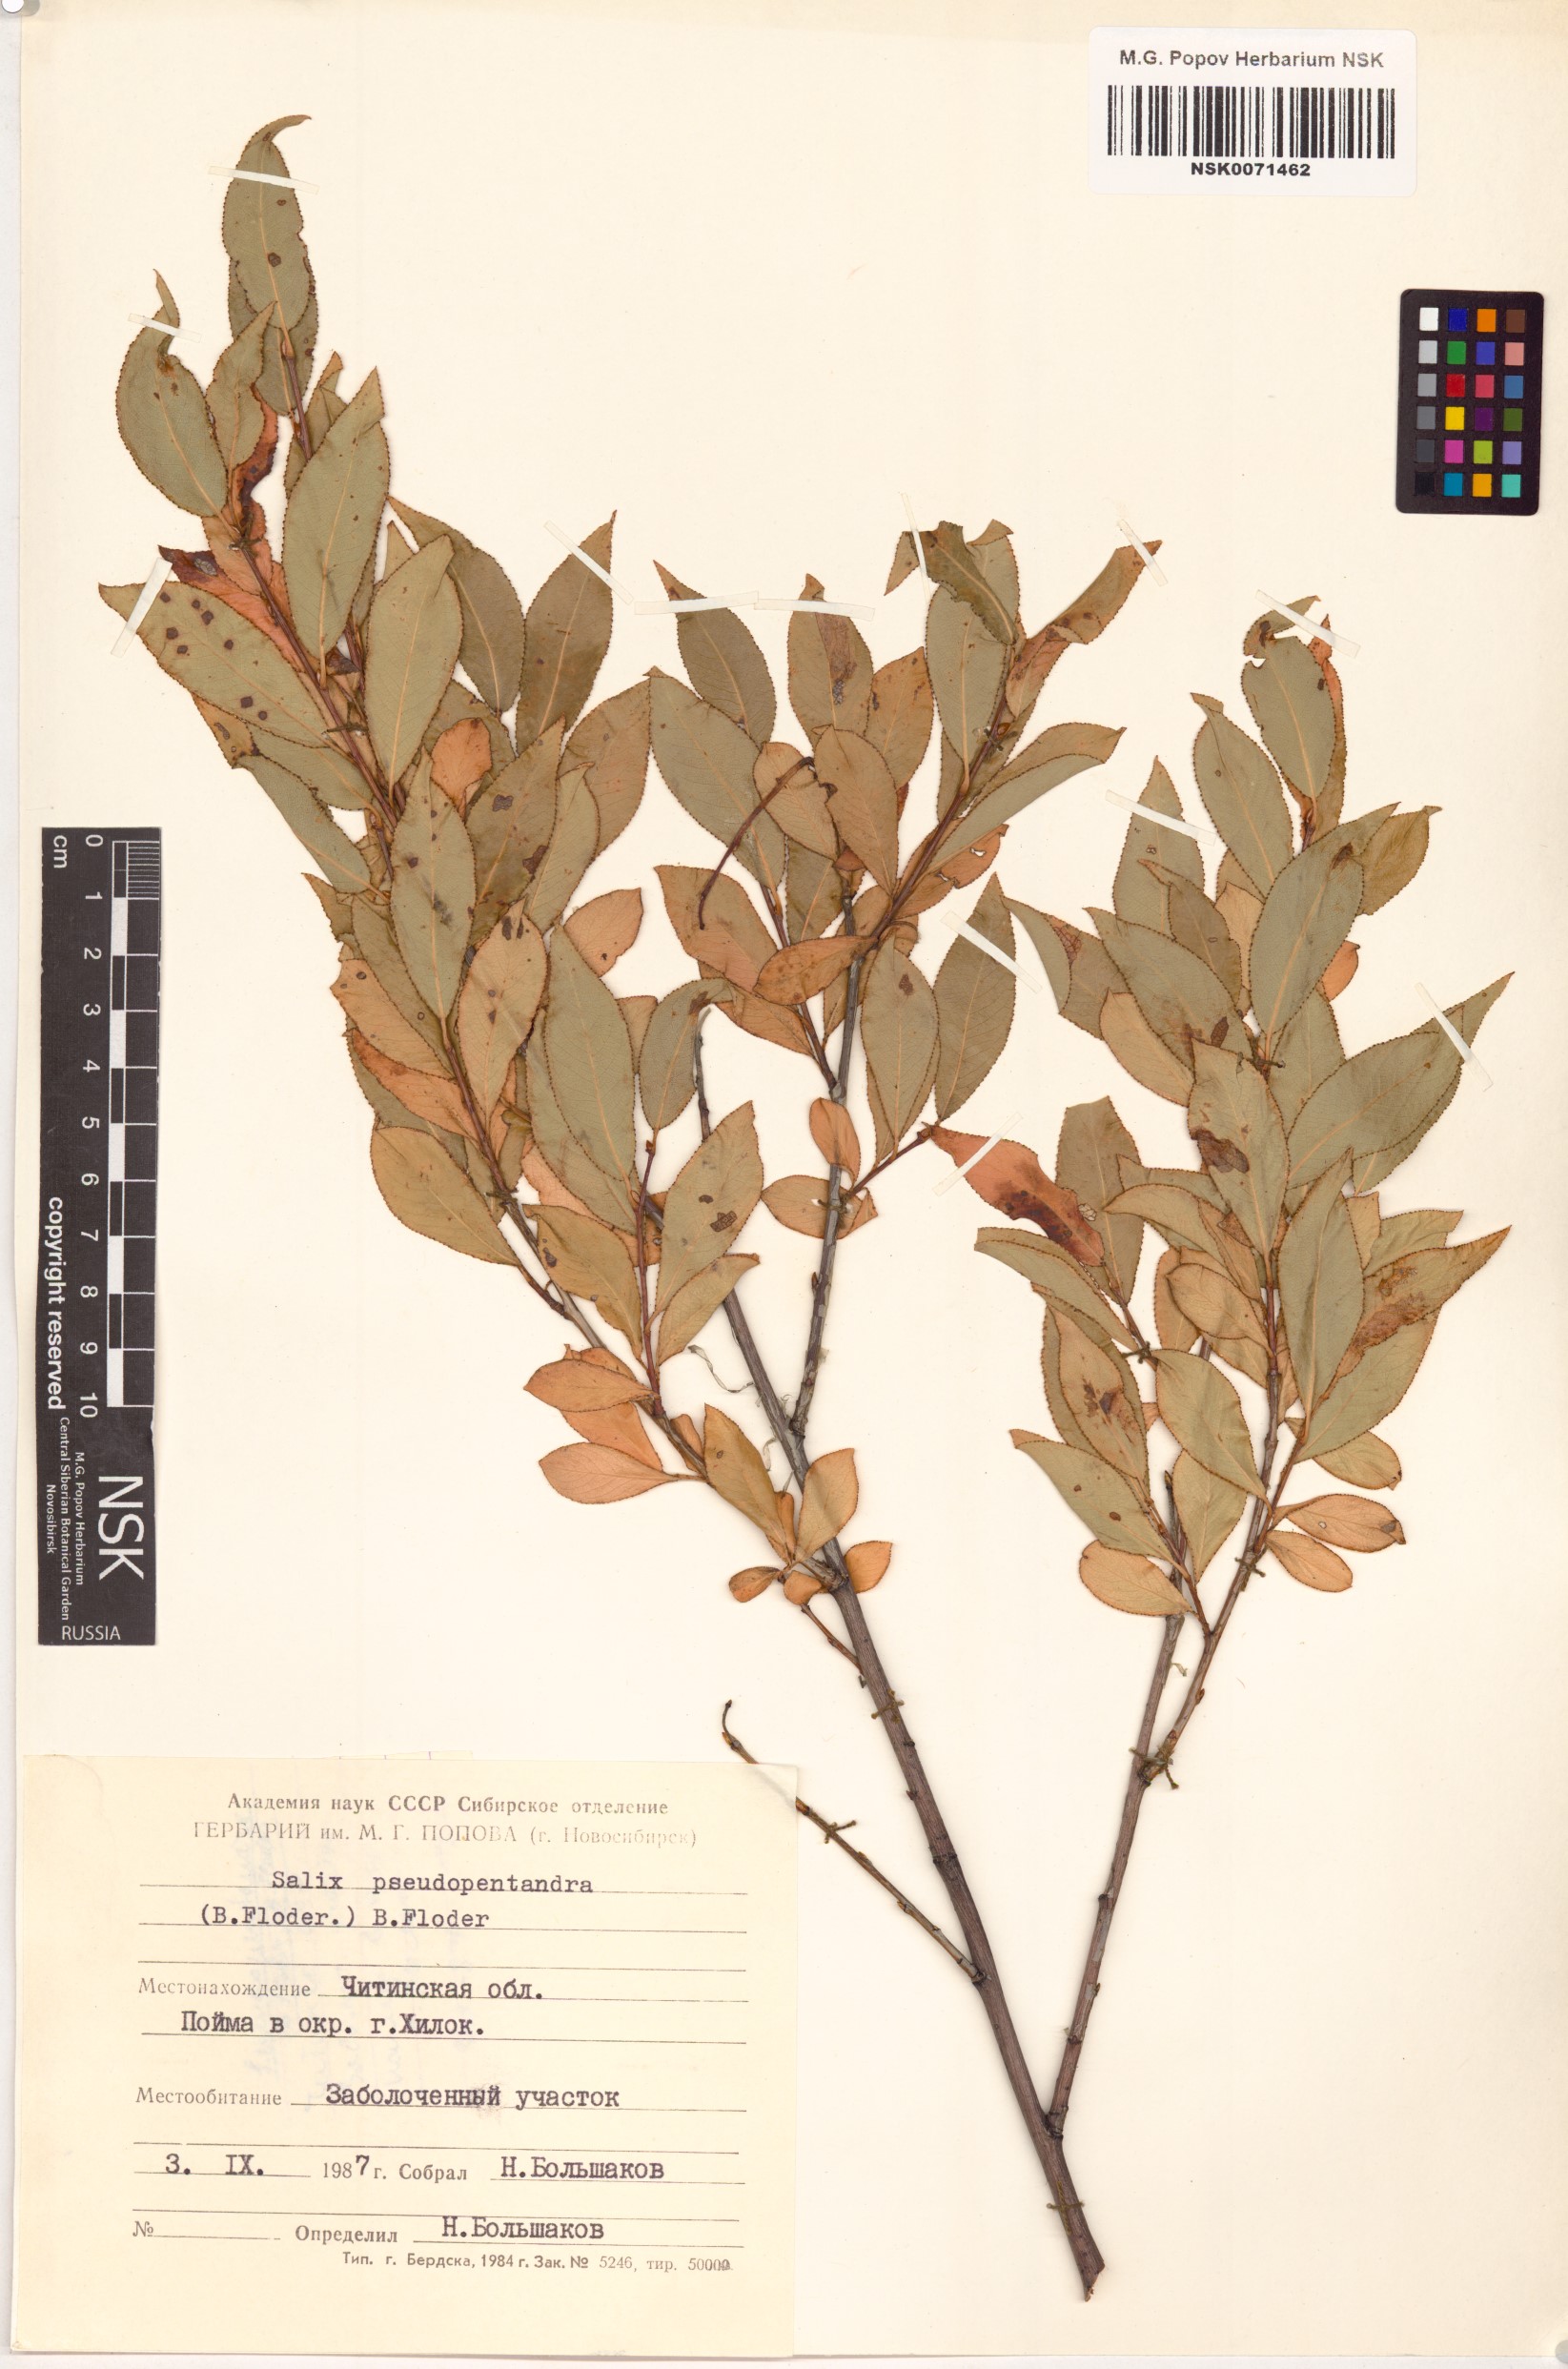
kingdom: Plantae
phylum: Tracheophyta
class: Magnoliopsida
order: Malpighiales
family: Salicaceae
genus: Salix
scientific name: Salix pseudopentandra
